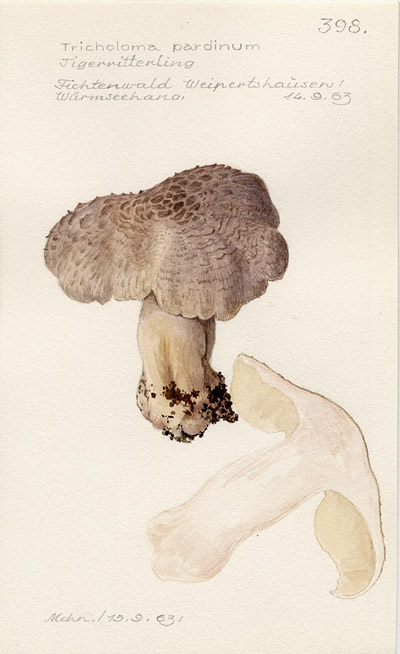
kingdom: Fungi
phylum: Basidiomycota
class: Agaricomycetes
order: Agaricales
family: Tricholomataceae
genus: Tricholoma
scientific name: Tricholoma pardinum
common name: Leopard knight
